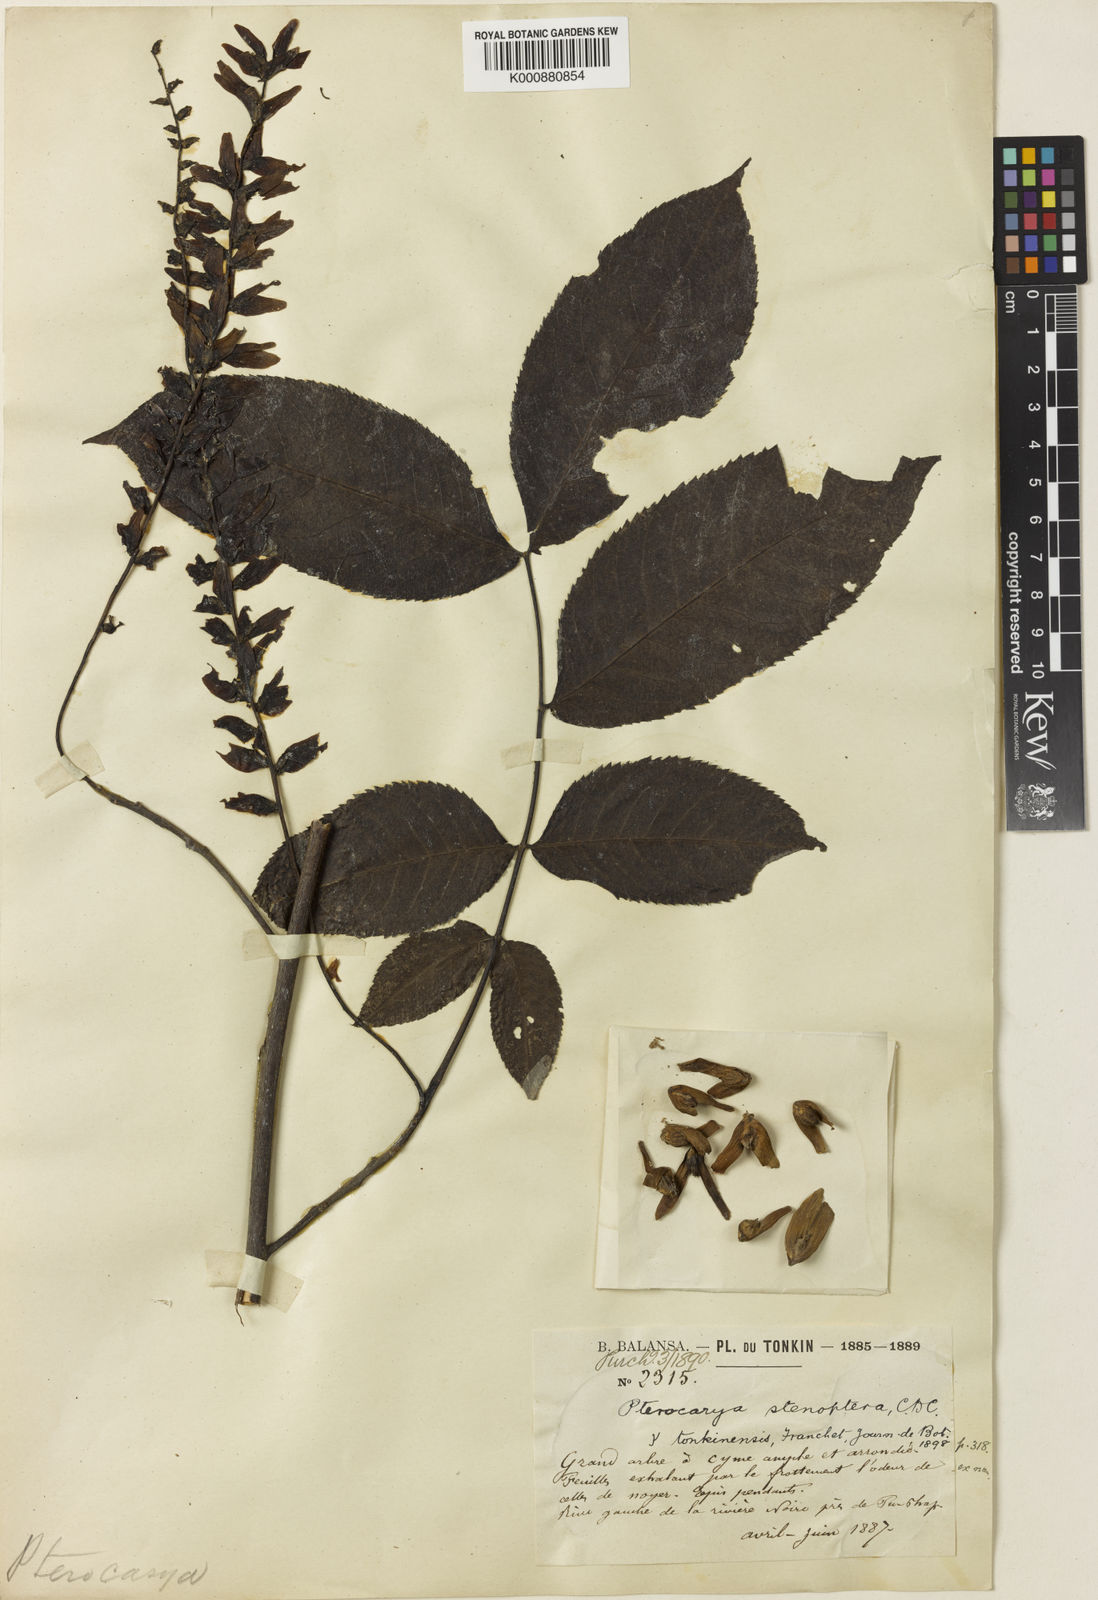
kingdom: Plantae
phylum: Tracheophyta
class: Magnoliopsida
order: Fagales
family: Juglandaceae
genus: Pterocarya
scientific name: Pterocarya tonkinensis
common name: Tonkin wingnut
